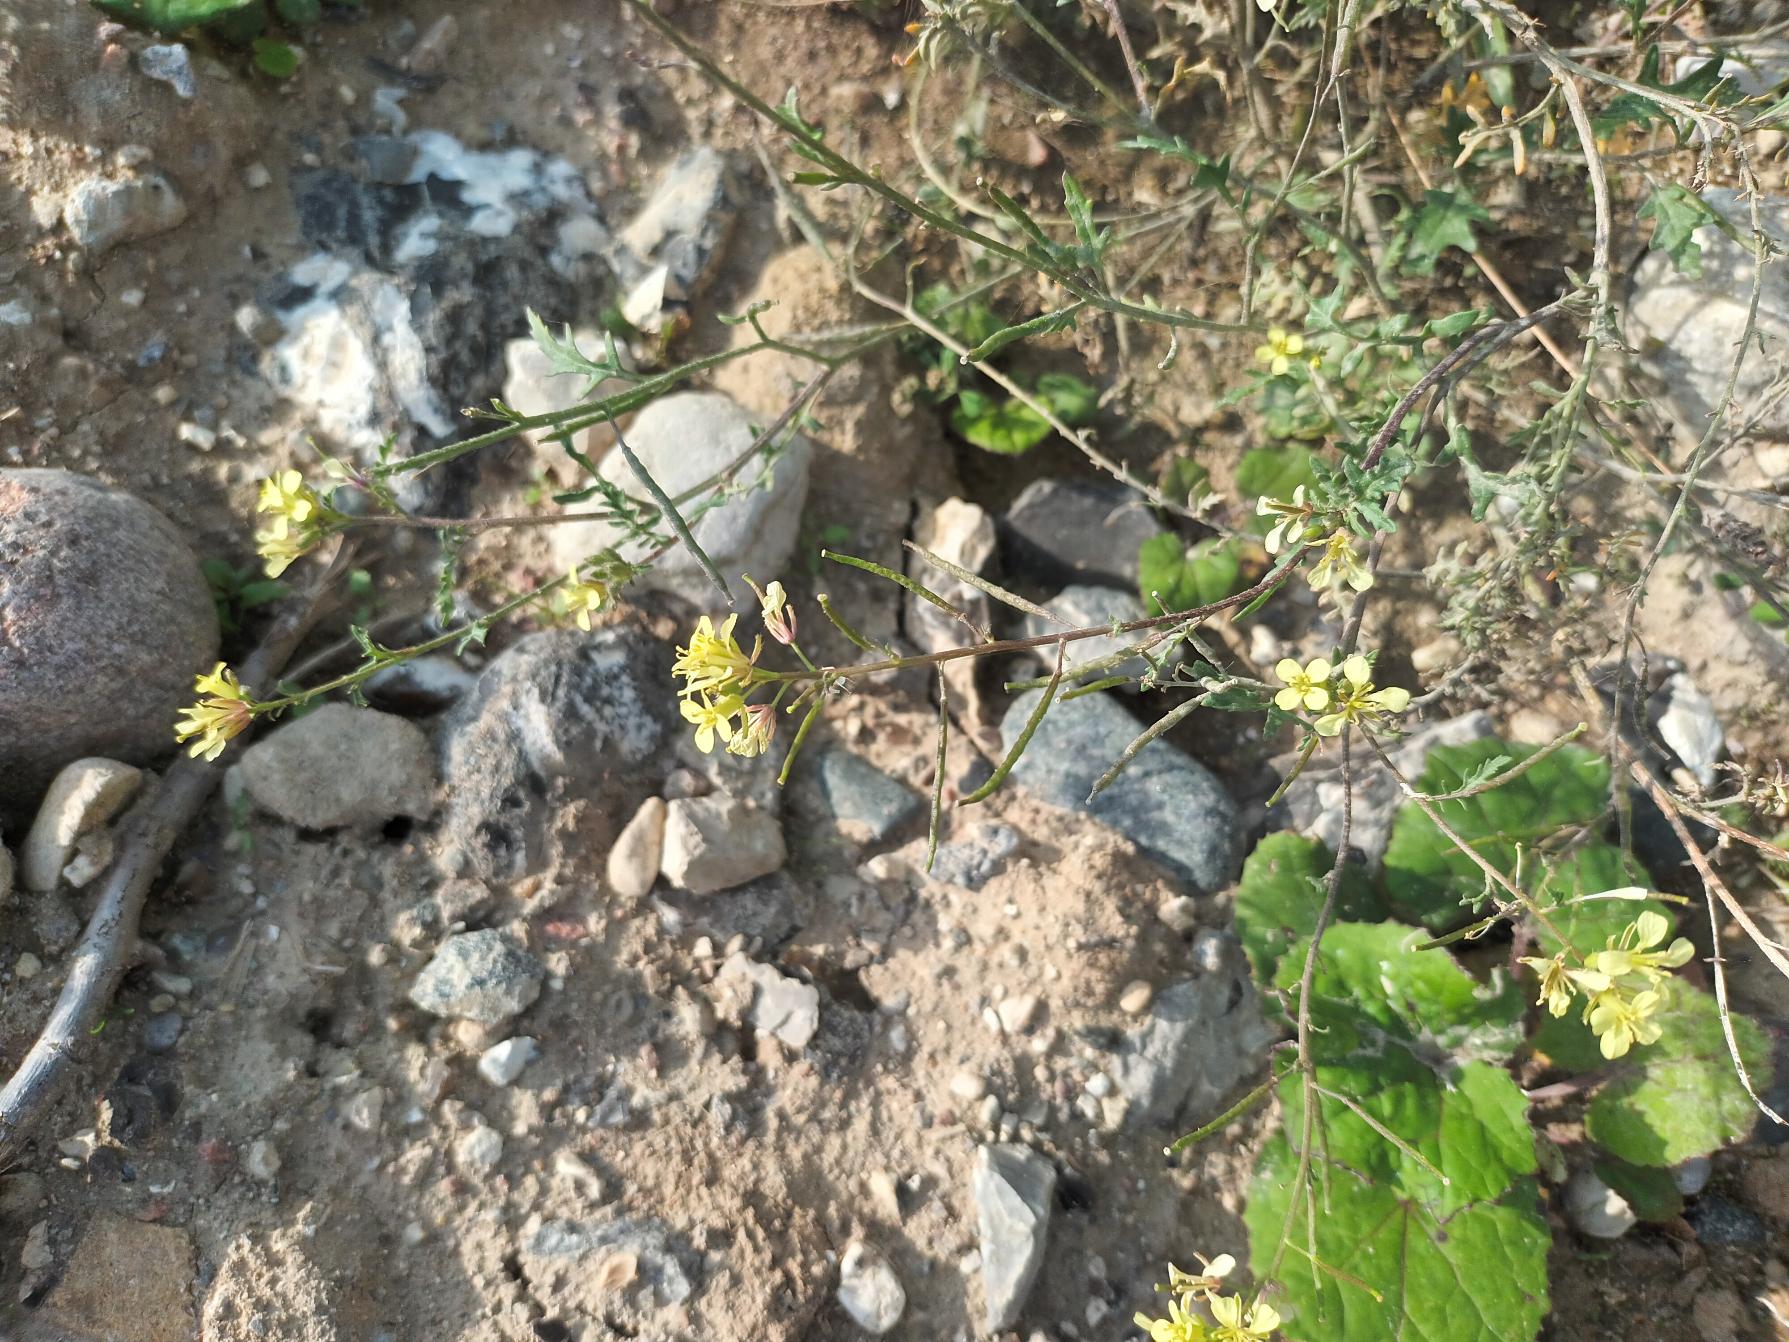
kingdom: Plantae
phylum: Tracheophyta
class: Magnoliopsida
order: Brassicales
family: Brassicaceae
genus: Erucastrum
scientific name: Erucastrum gallicum
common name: Svinesennep
